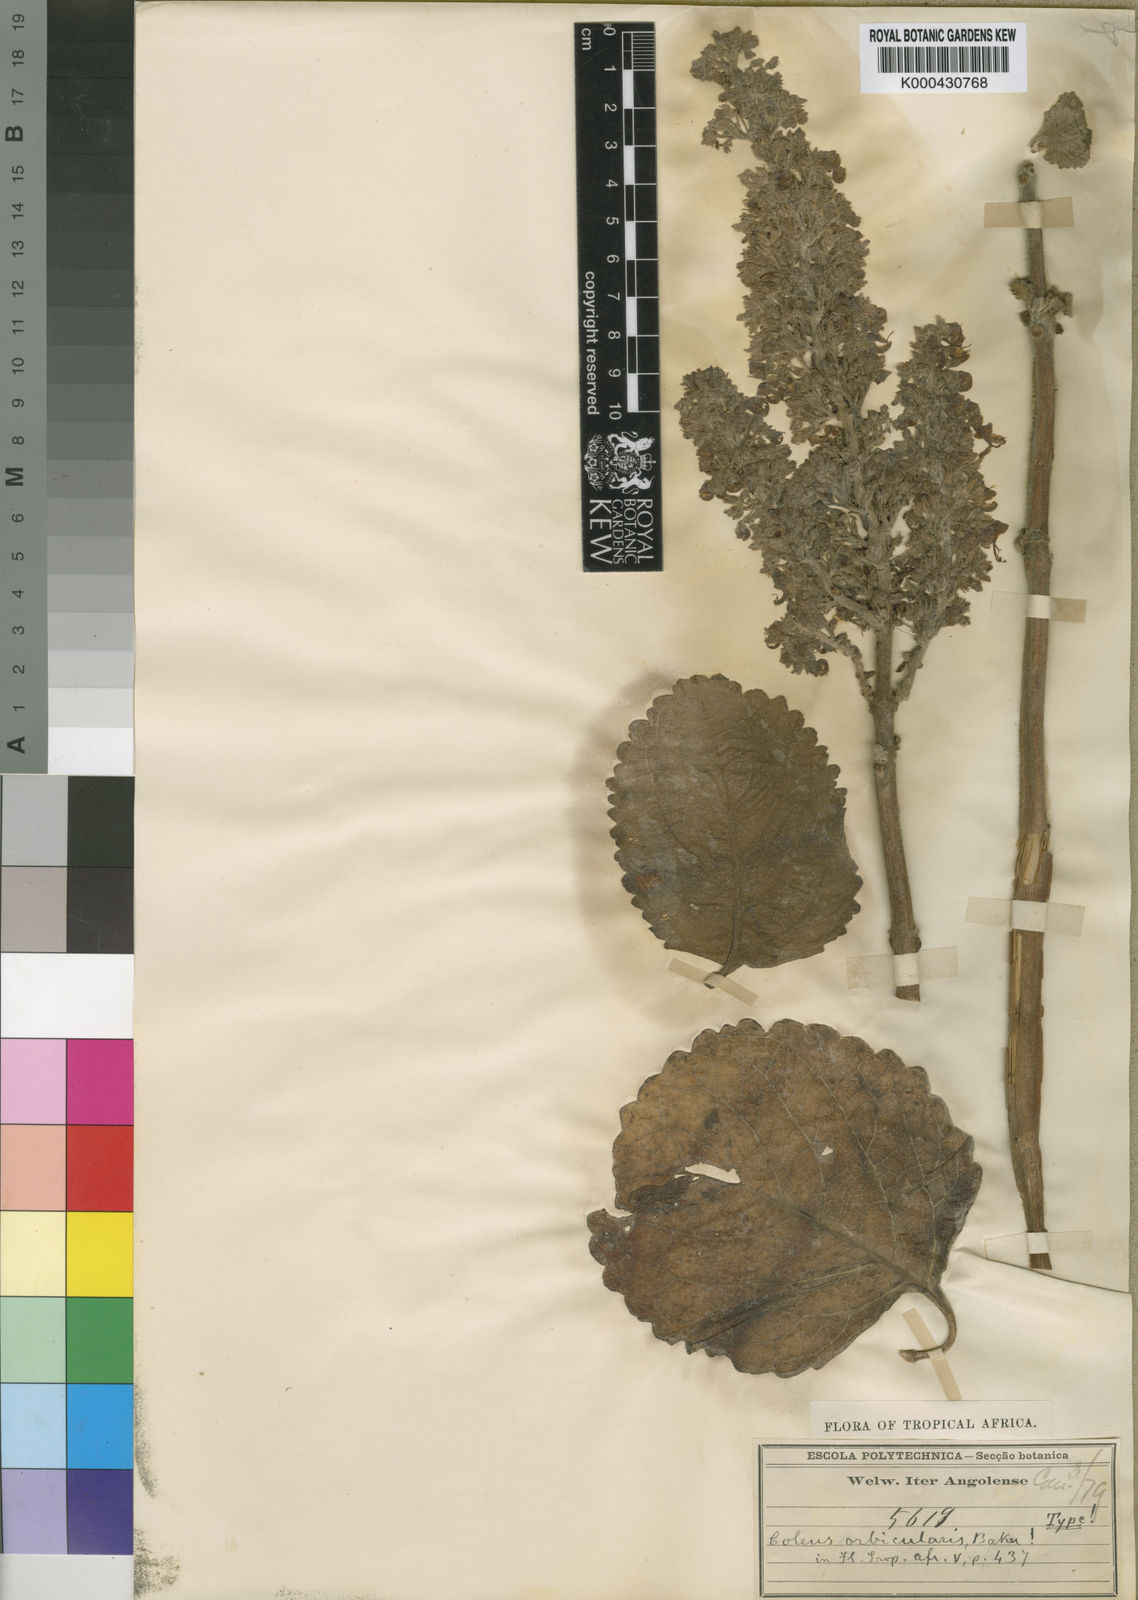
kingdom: Plantae
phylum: Tracheophyta
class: Magnoliopsida
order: Lamiales
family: Lamiaceae
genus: Plectranthus
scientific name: Plectranthus
